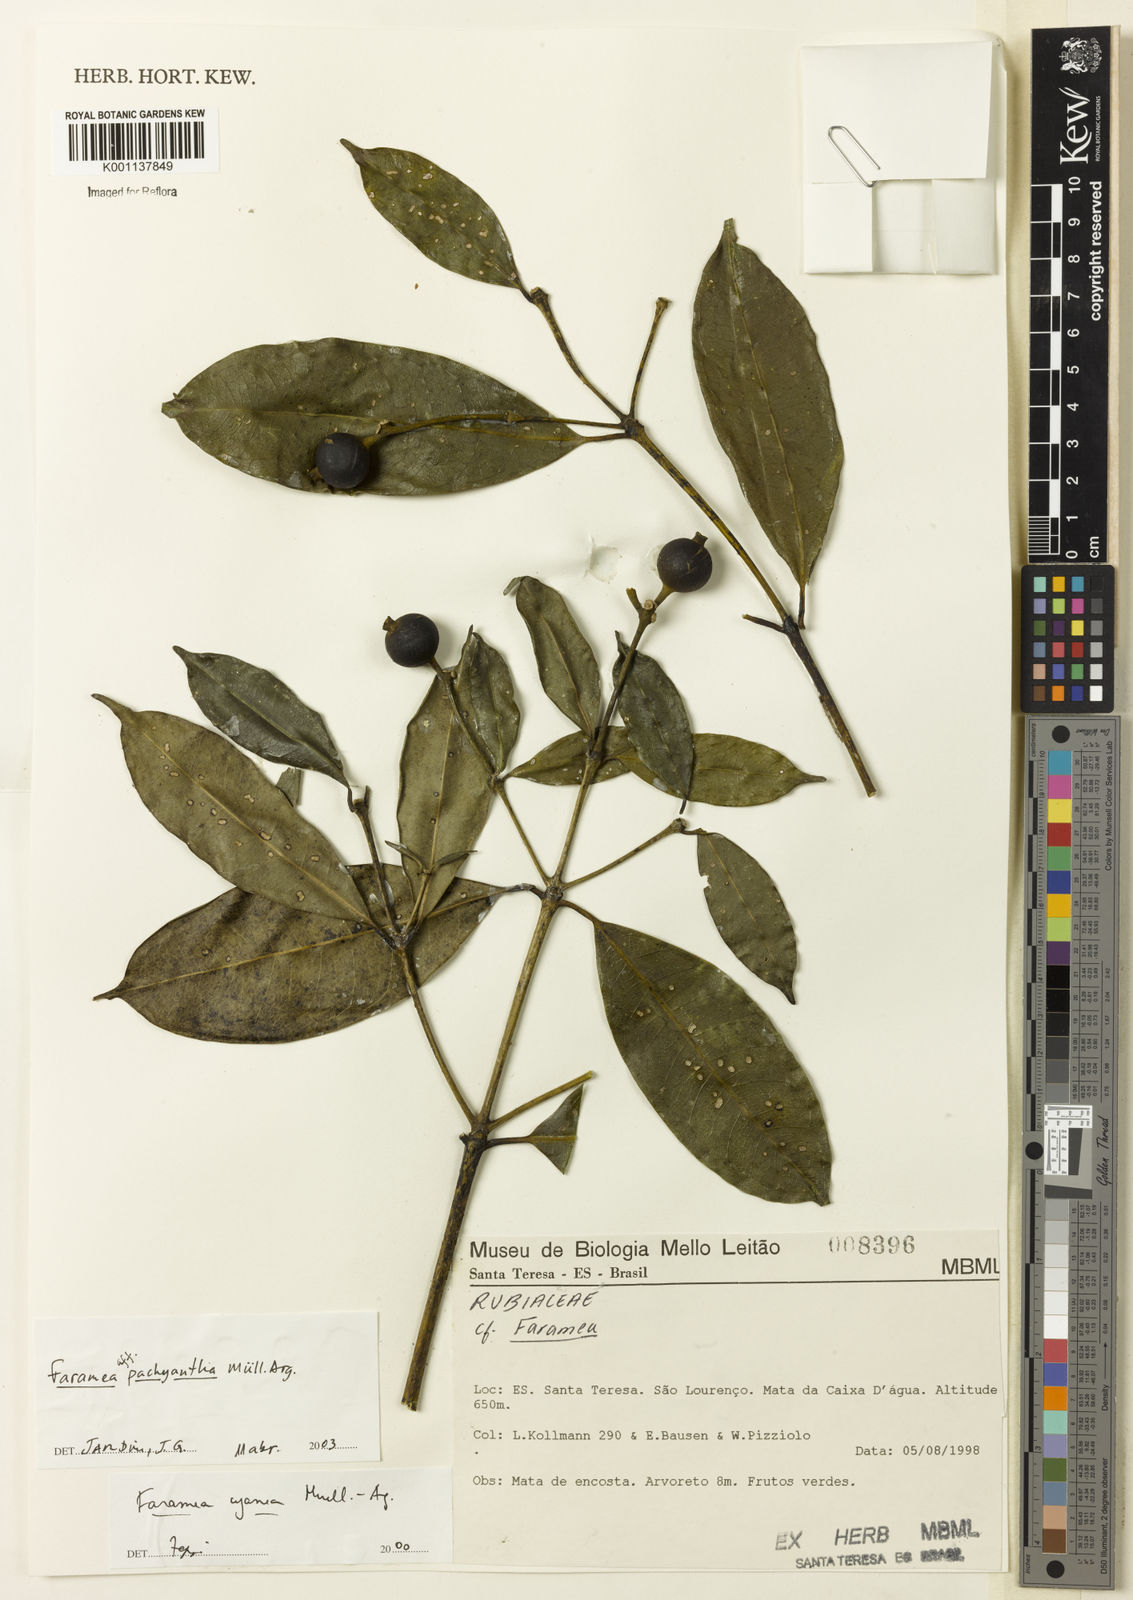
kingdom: Plantae
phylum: Tracheophyta
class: Magnoliopsida
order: Gentianales
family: Rubiaceae
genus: Faramea
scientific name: Faramea
